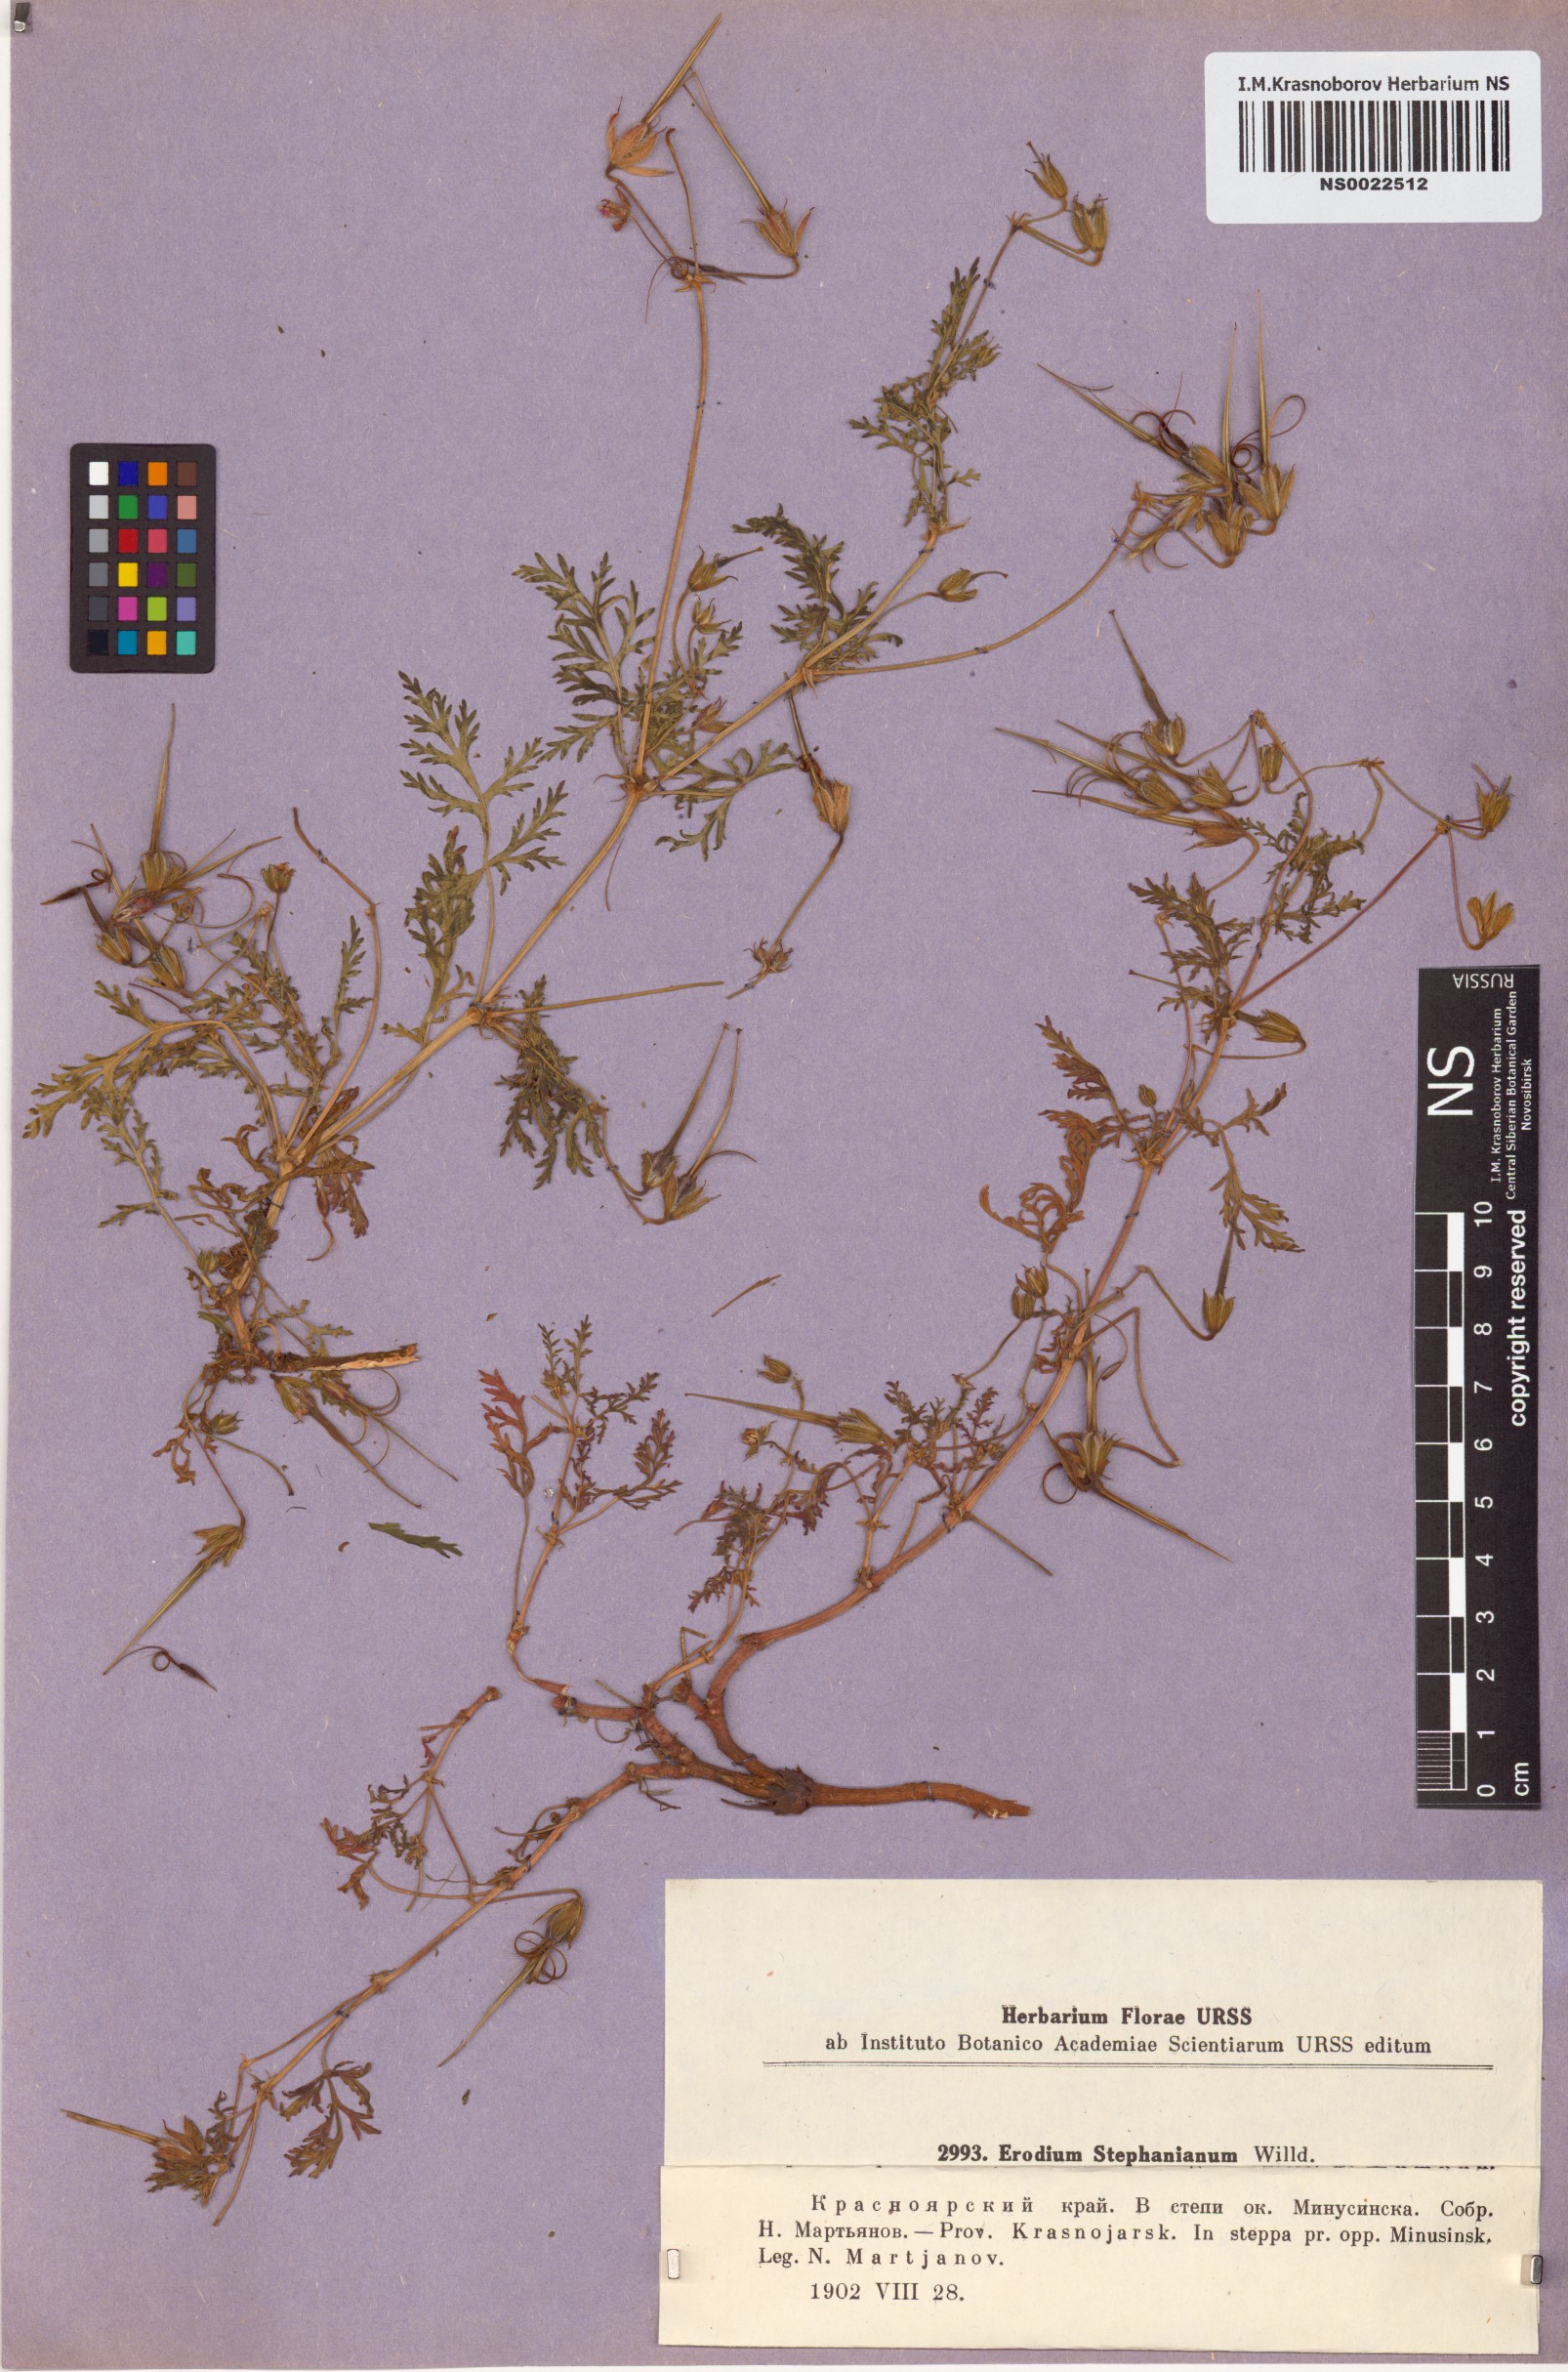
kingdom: Plantae
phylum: Tracheophyta
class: Magnoliopsida
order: Geraniales
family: Geraniaceae
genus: Erodium
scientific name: Erodium stephanianum
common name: Stephen's stork's bill
